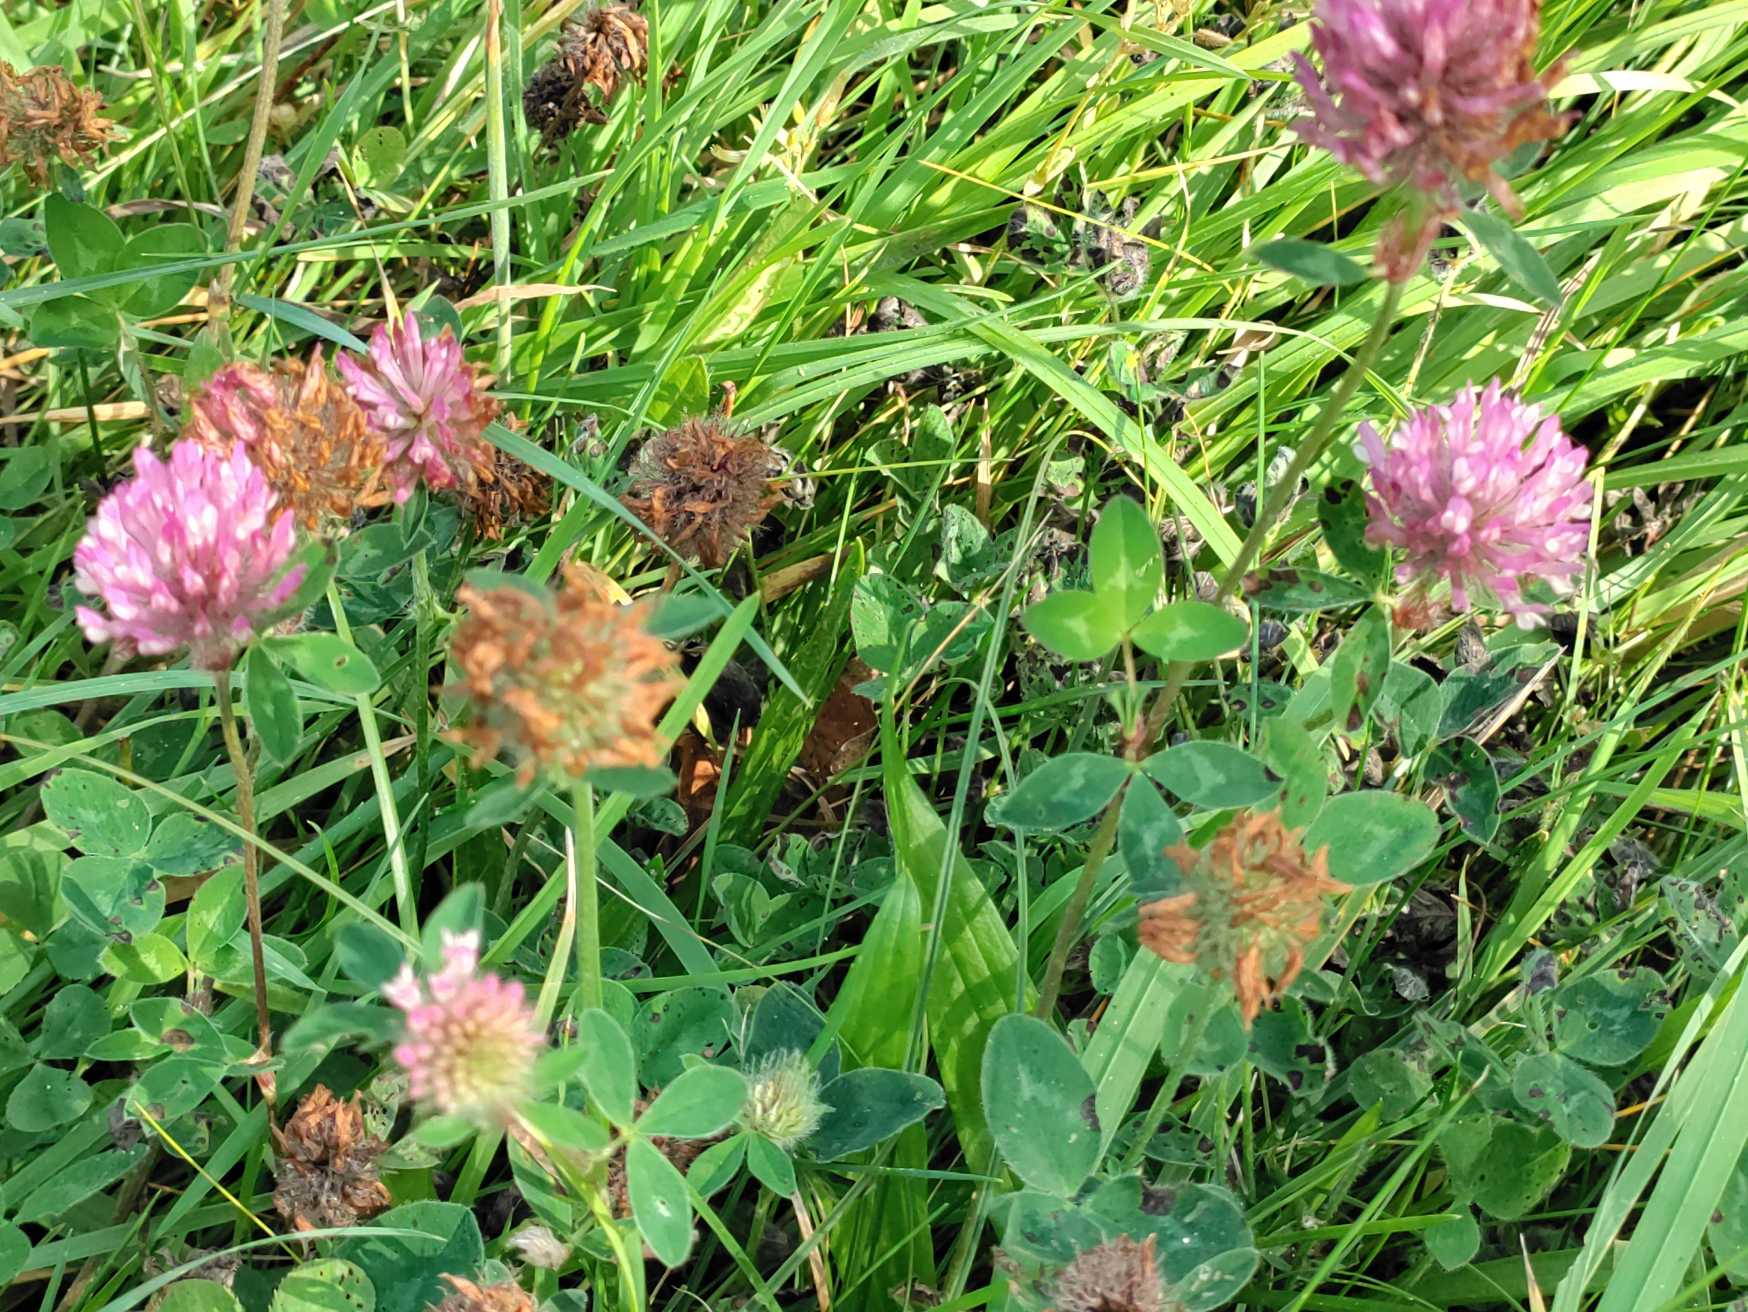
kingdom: Plantae
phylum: Tracheophyta
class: Magnoliopsida
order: Fabales
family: Fabaceae
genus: Trifolium
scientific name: Trifolium pratense
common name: Rød-kløver
